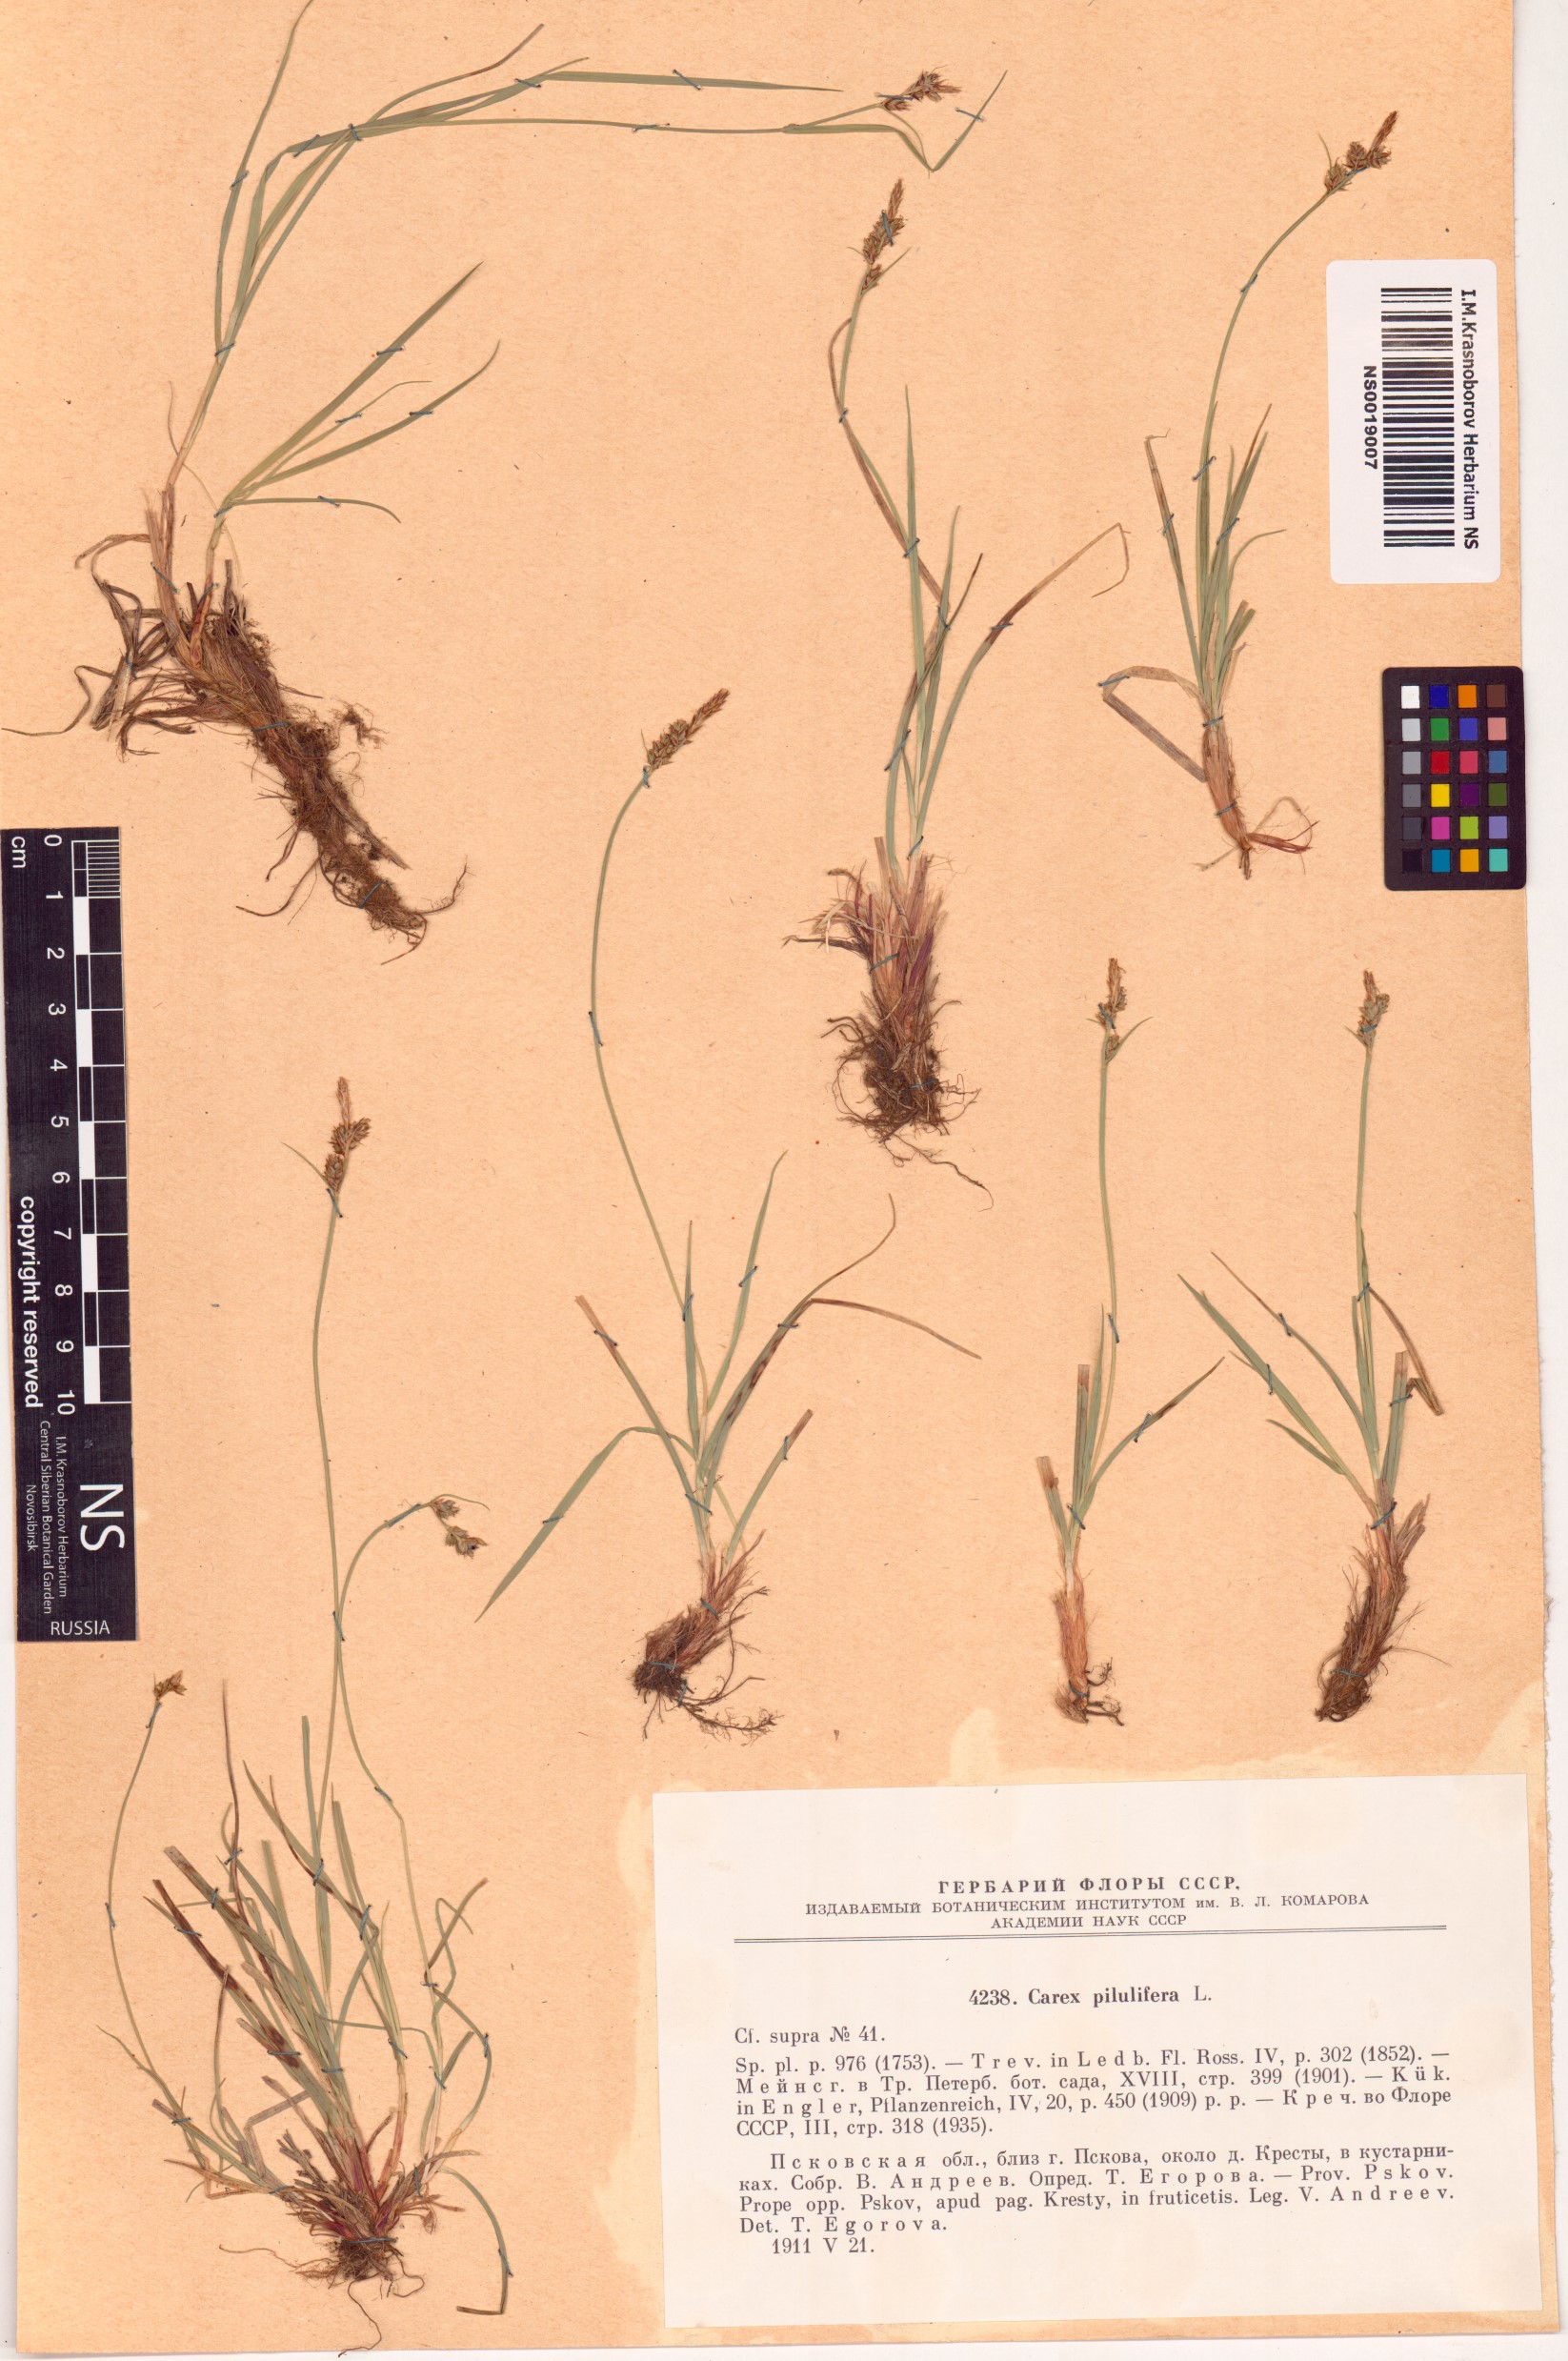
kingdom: Plantae
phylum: Tracheophyta
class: Liliopsida
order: Poales
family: Cyperaceae
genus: Carex
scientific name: Carex pilulifera
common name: Pill sedge
